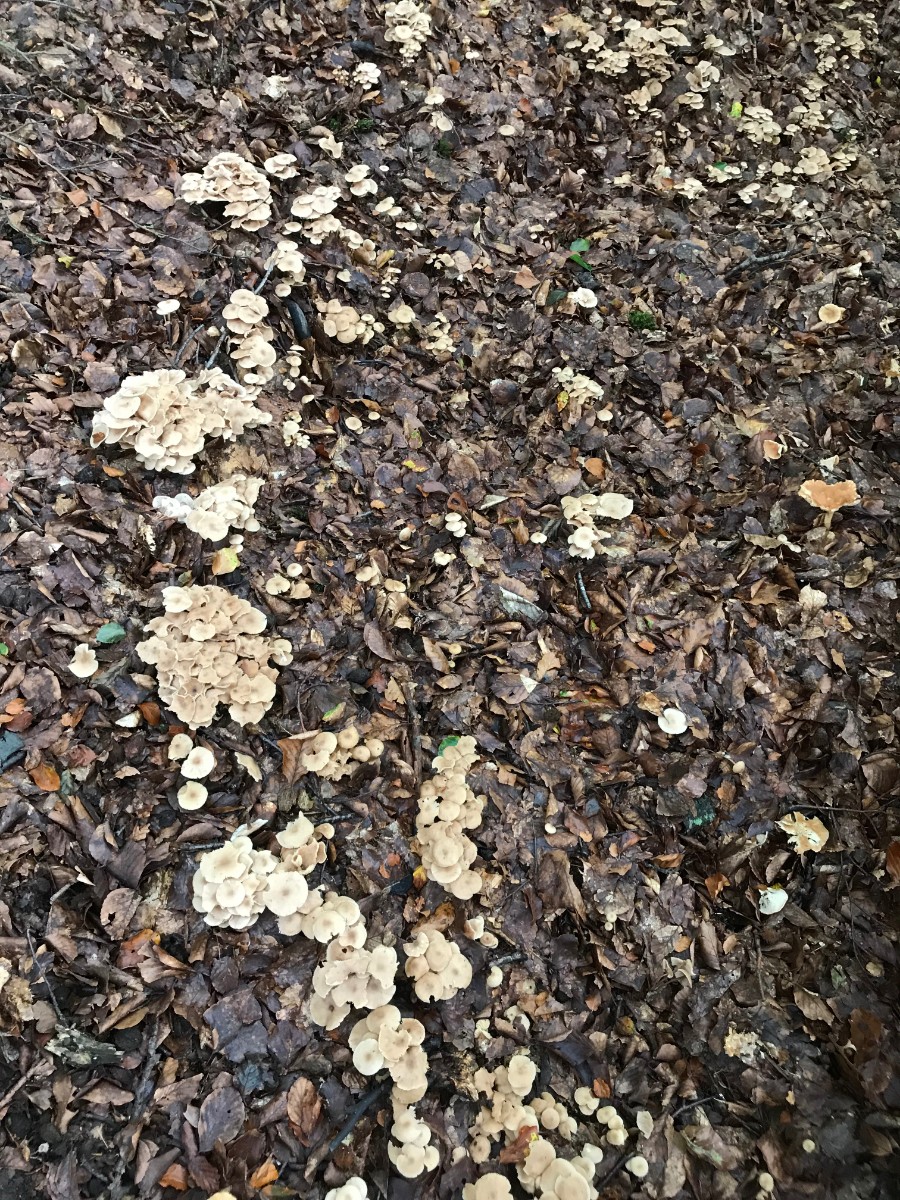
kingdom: Fungi
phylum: Basidiomycota
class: Agaricomycetes
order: Agaricales
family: Omphalotaceae
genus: Collybiopsis
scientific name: Collybiopsis confluens
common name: knippe-fladhat
